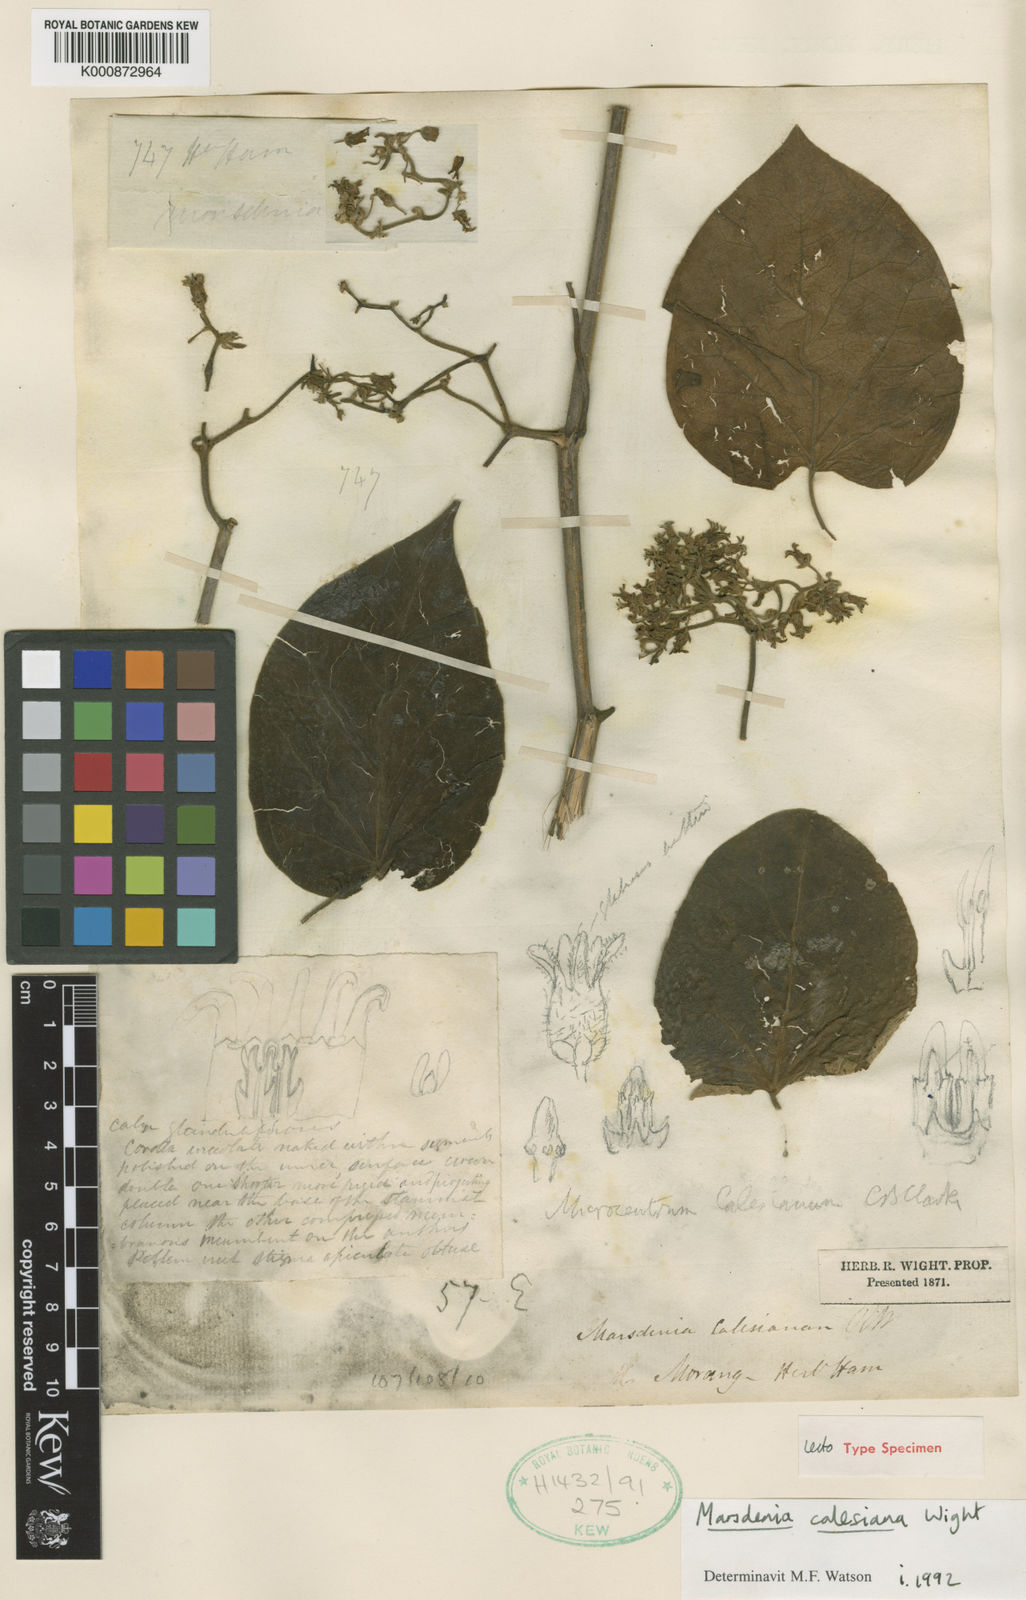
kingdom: Plantae
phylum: Tracheophyta
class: Magnoliopsida
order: Gentianales
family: Apocynaceae
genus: Gongronemopsis
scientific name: Gongronemopsis calesiana
